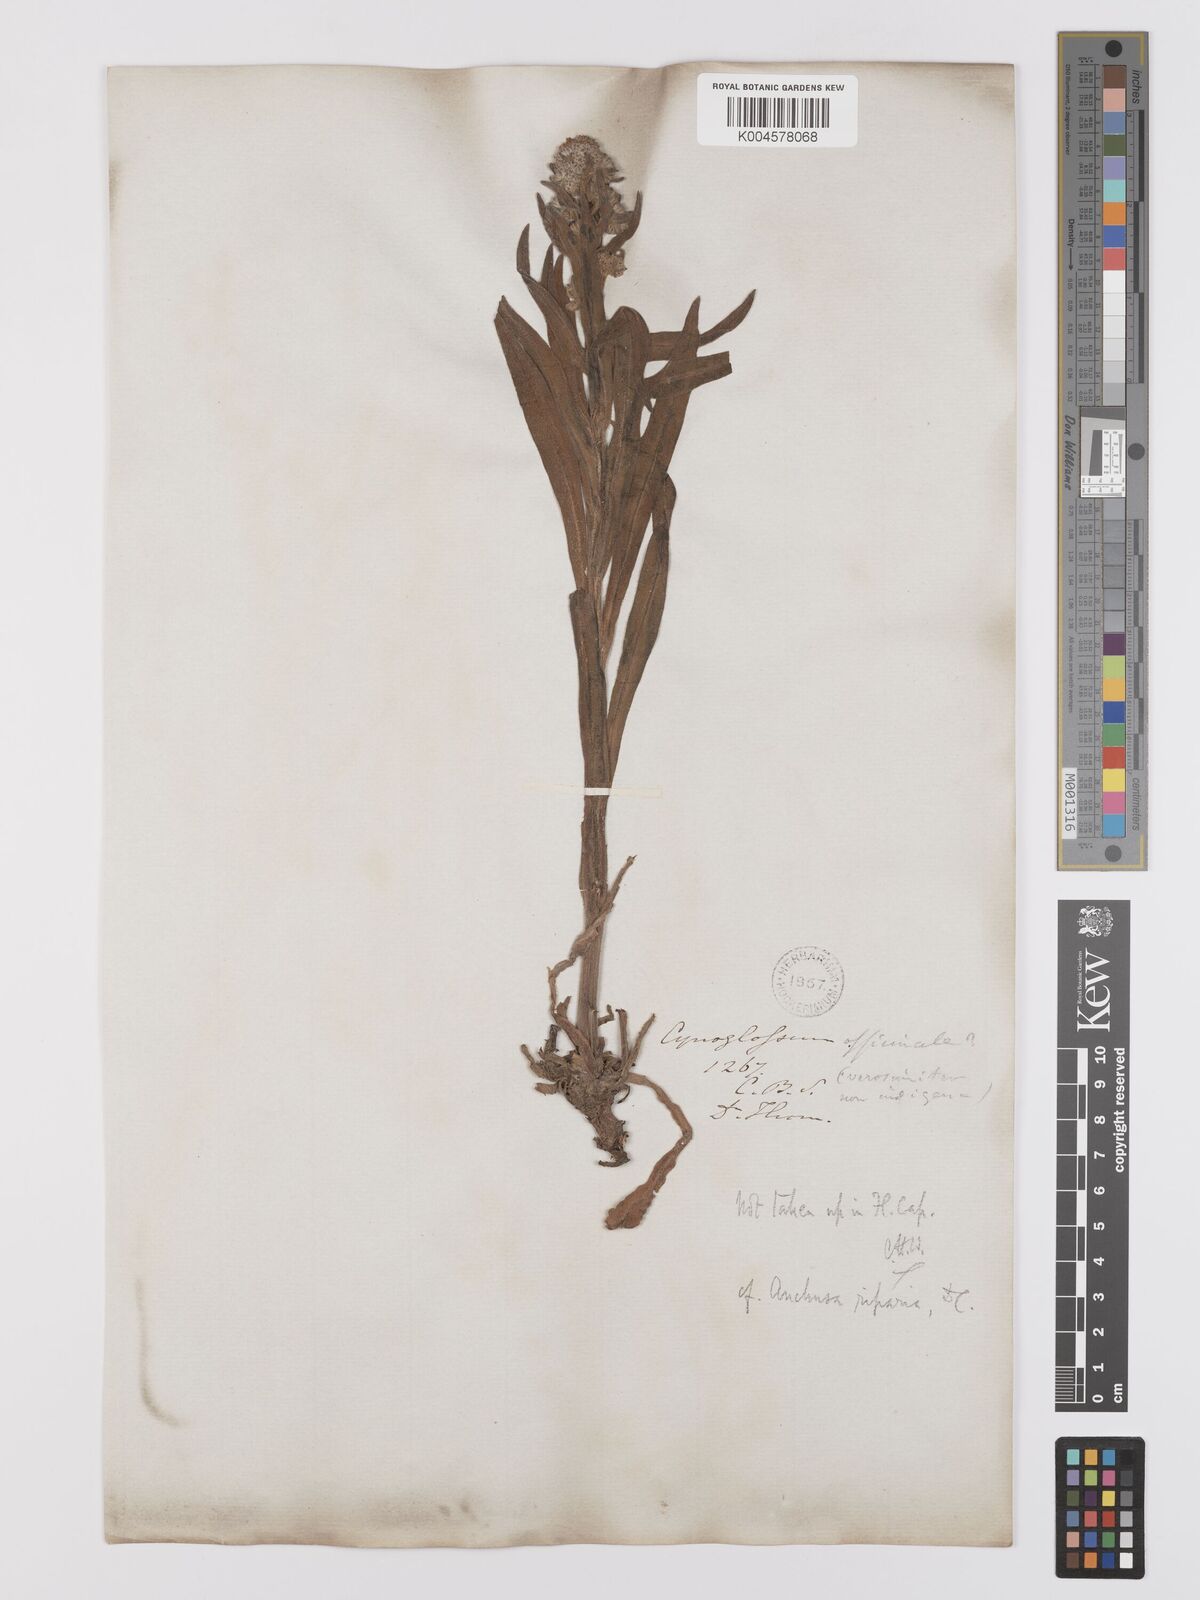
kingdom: Plantae
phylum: Tracheophyta
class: Magnoliopsida
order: Boraginales
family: Boraginaceae
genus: Anchusa
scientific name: Anchusa capensis
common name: Cape bugloss
